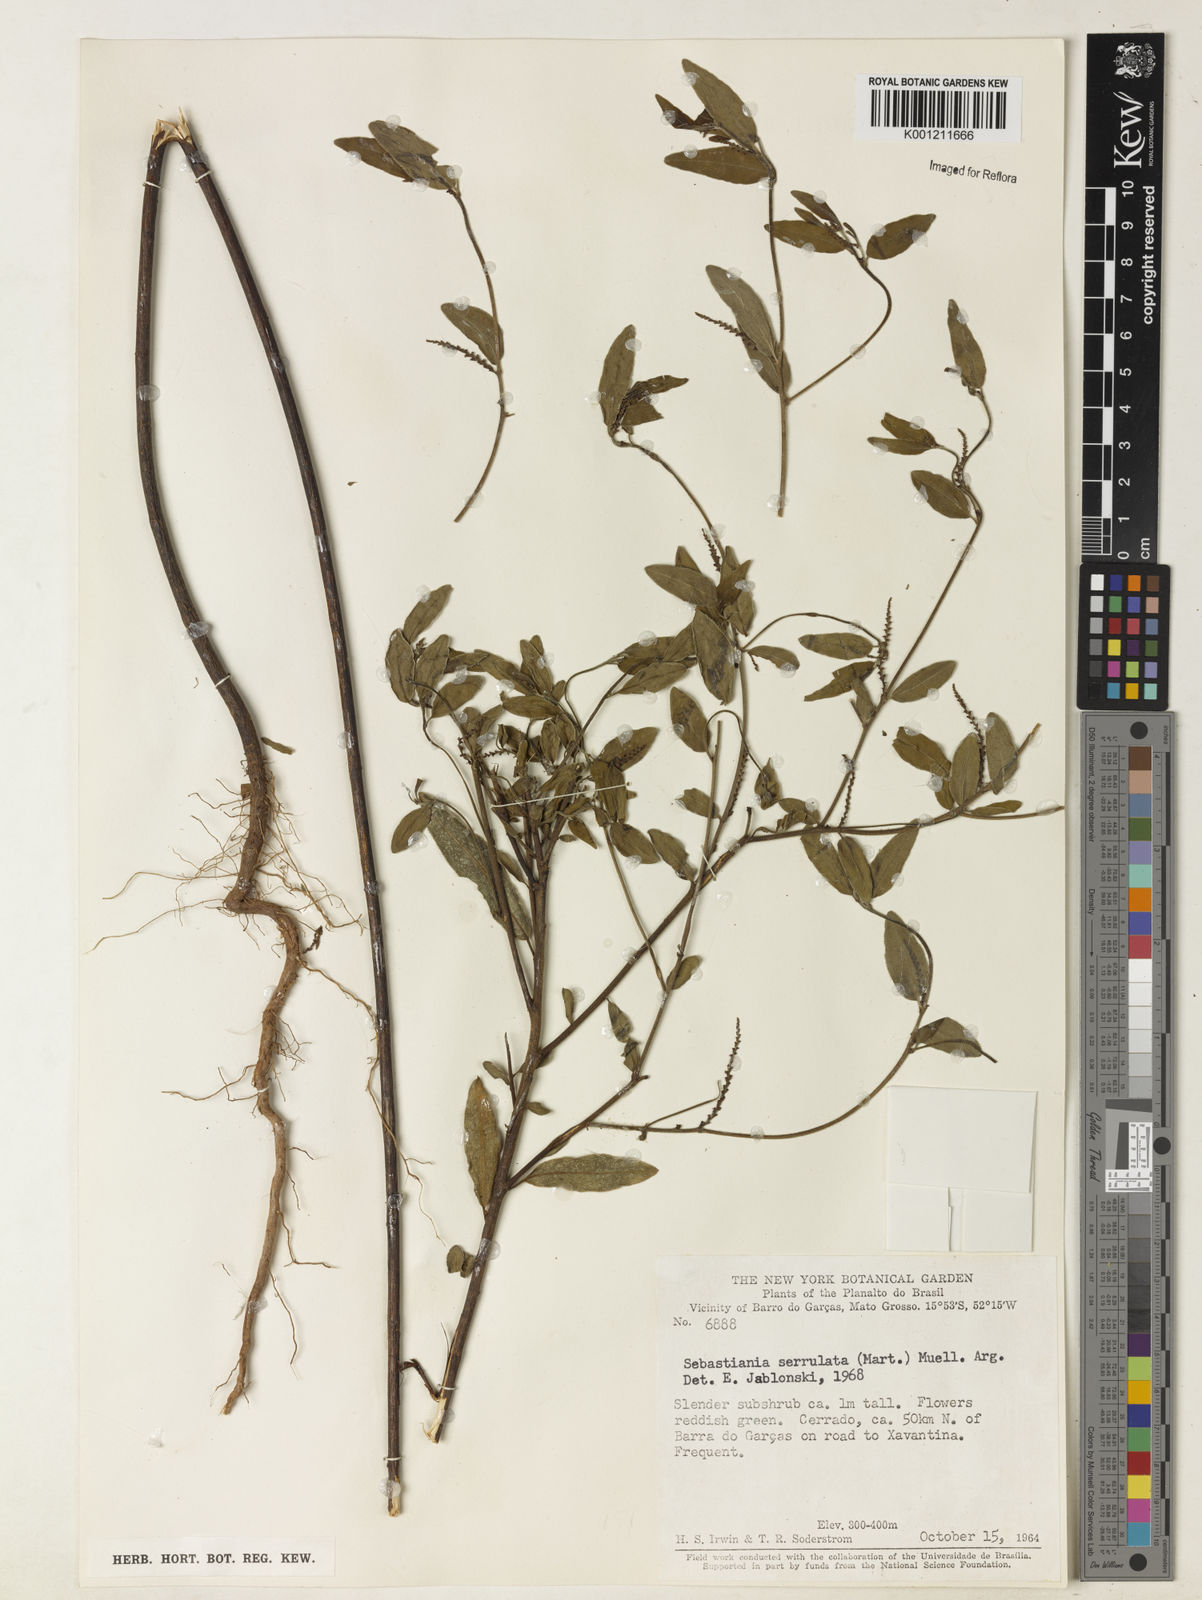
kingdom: Plantae
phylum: Tracheophyta
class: Magnoliopsida
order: Malpighiales
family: Euphorbiaceae
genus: Microstachys
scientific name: Microstachys
